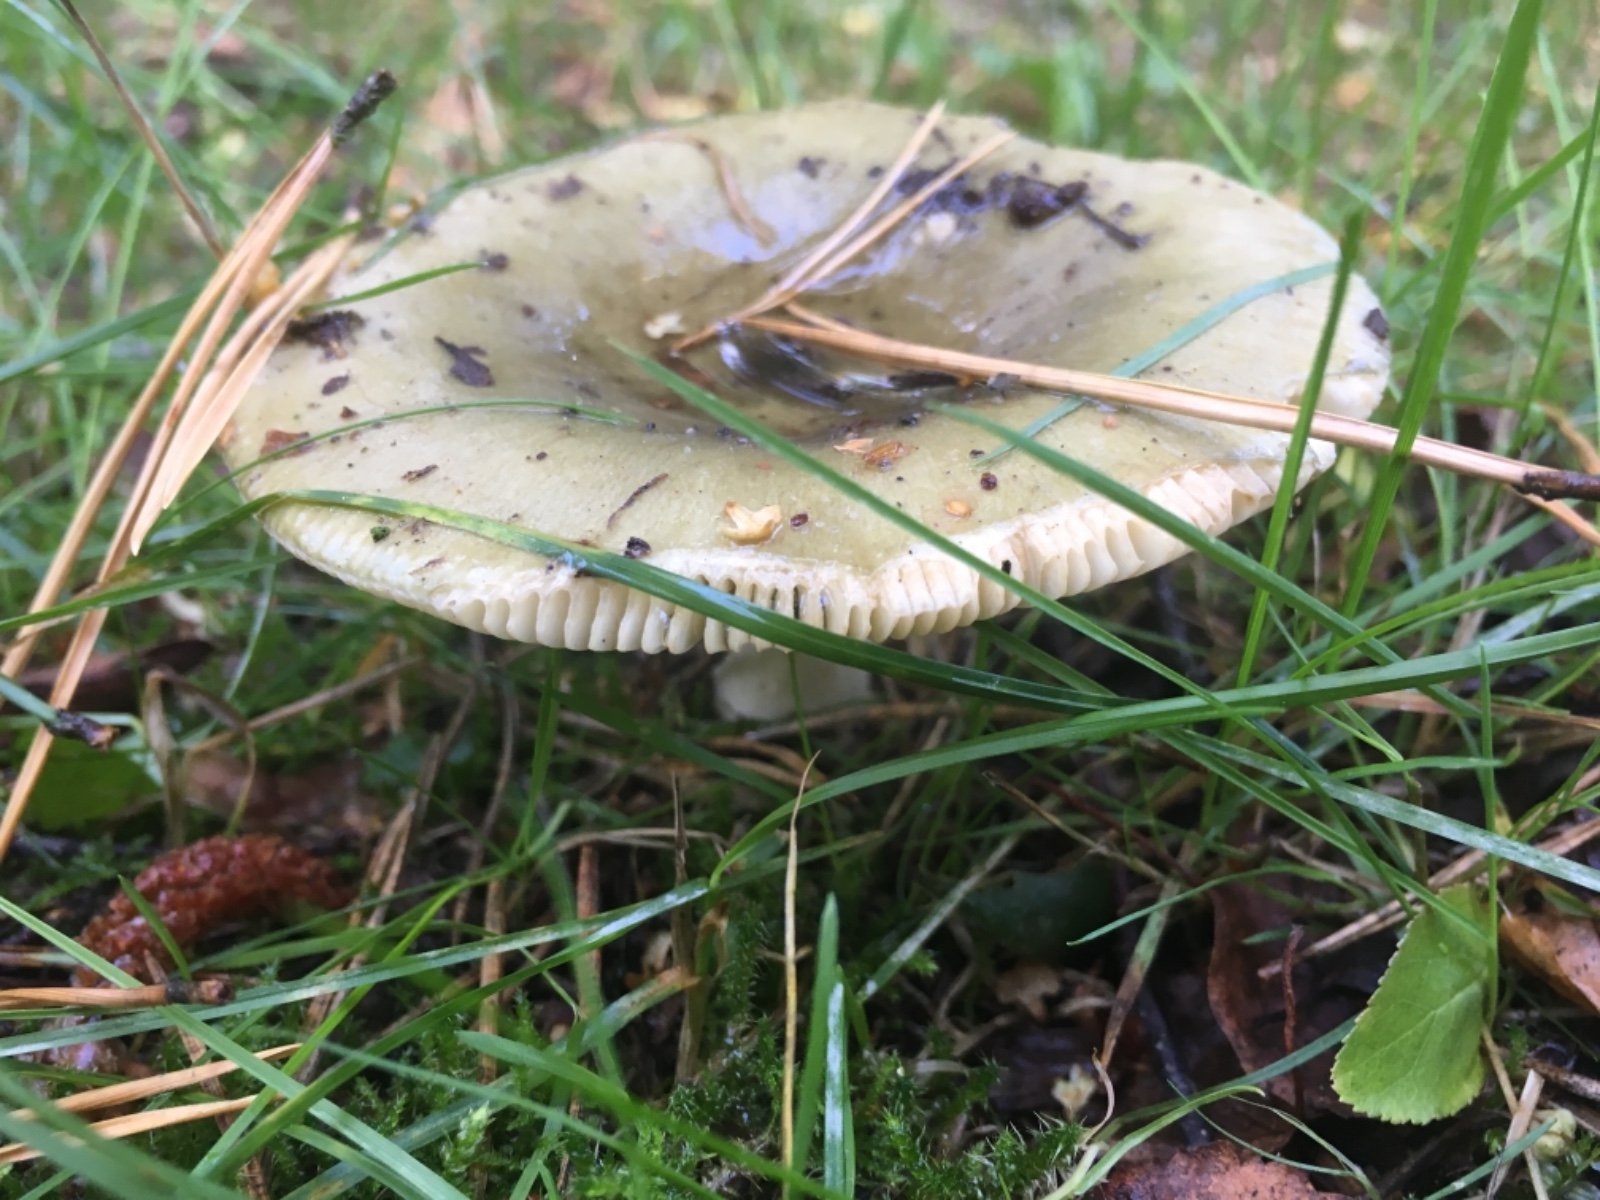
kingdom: Fungi
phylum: Basidiomycota
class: Agaricomycetes
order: Russulales
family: Russulaceae
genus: Russula
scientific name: Russula aeruginea
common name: græsgrøn skørhat
